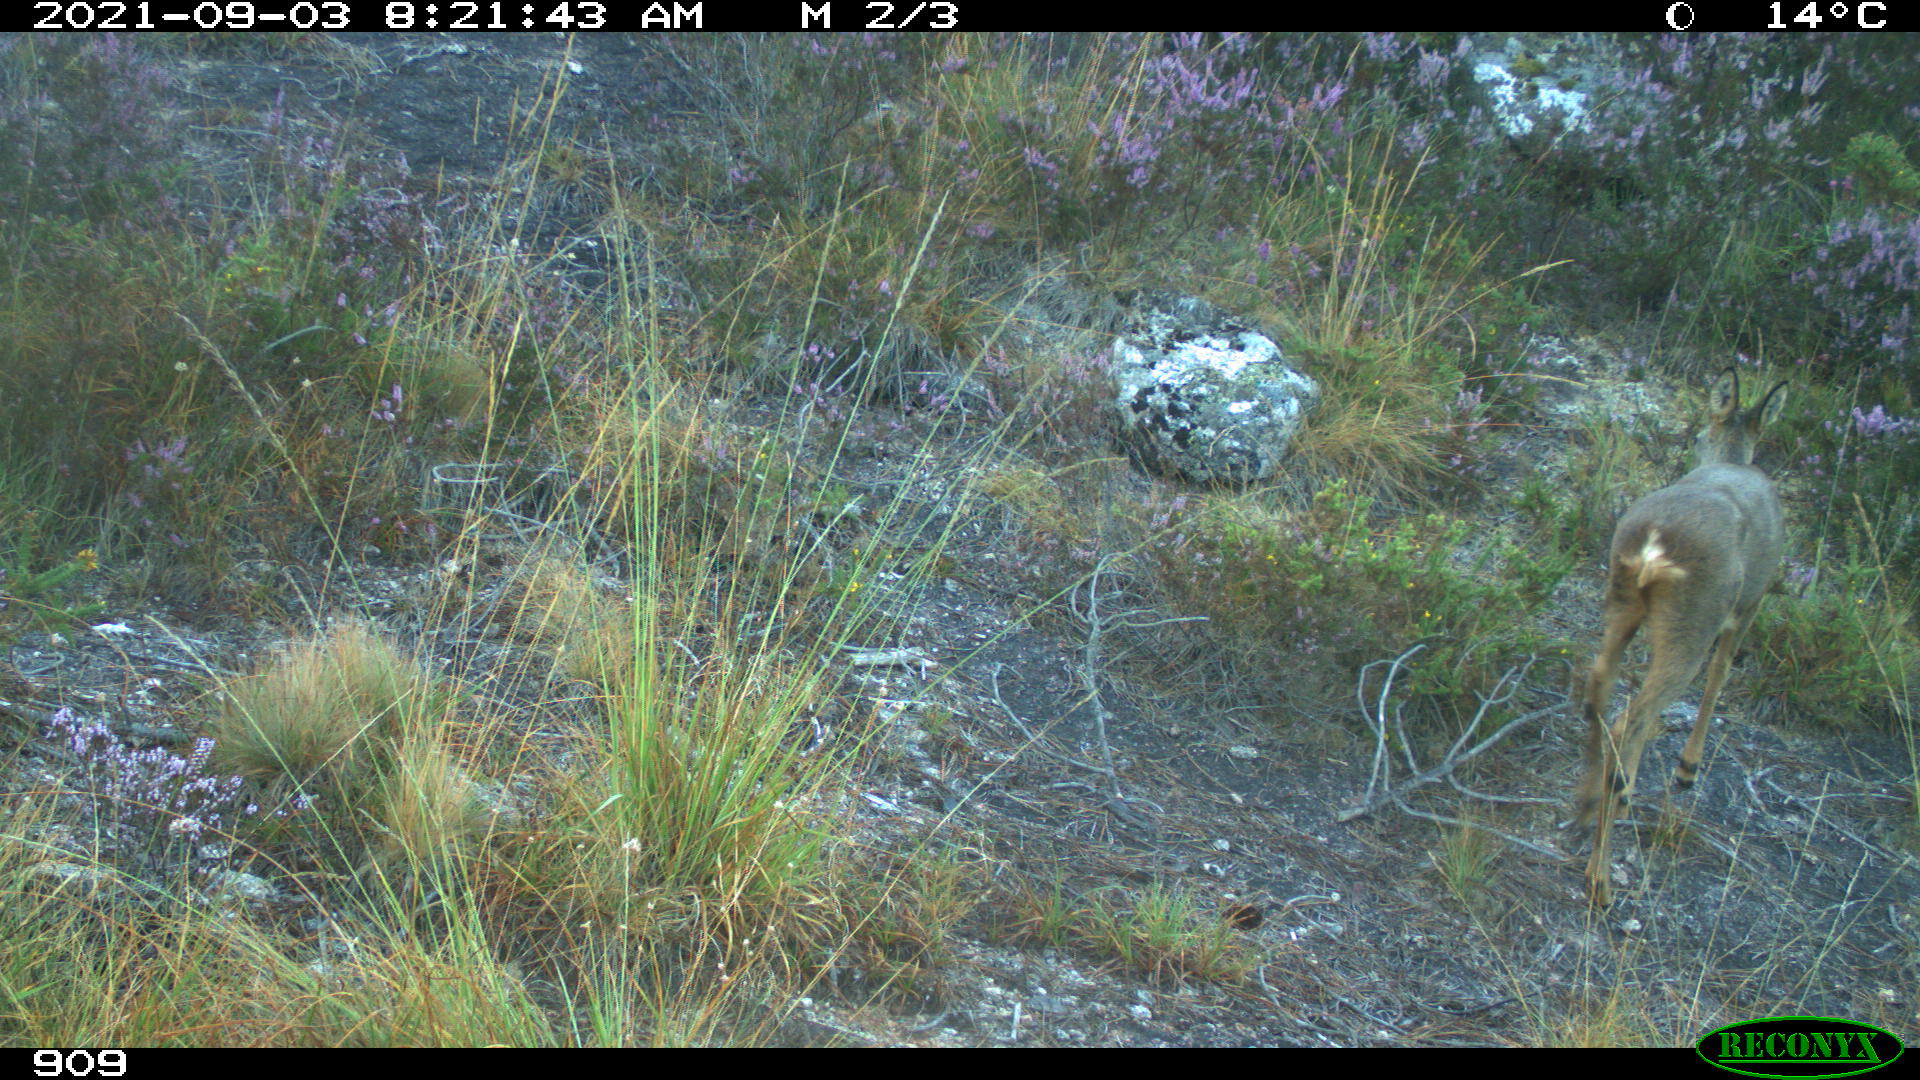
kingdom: Animalia
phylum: Chordata
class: Mammalia
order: Artiodactyla
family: Cervidae
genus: Capreolus
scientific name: Capreolus capreolus
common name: Western roe deer
